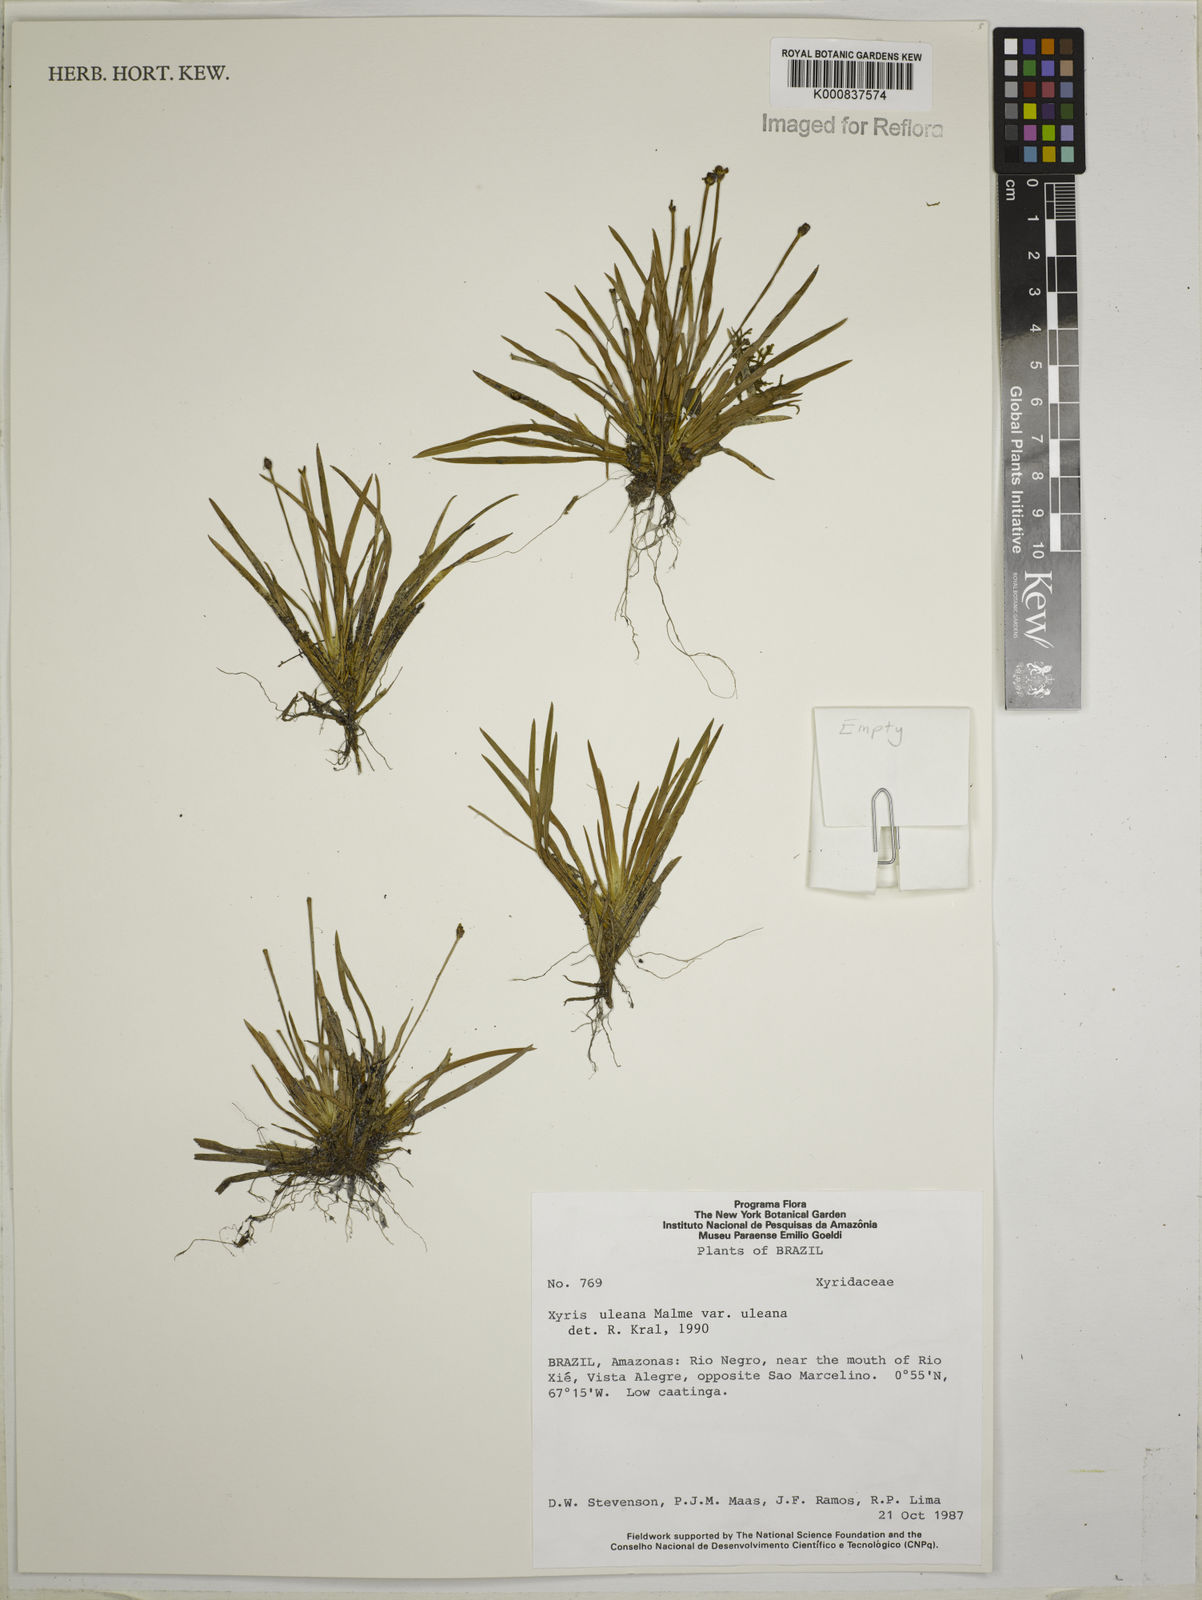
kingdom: Plantae
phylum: Tracheophyta
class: Liliopsida
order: Poales
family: Xyridaceae
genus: Xyris
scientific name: Xyris uleana
